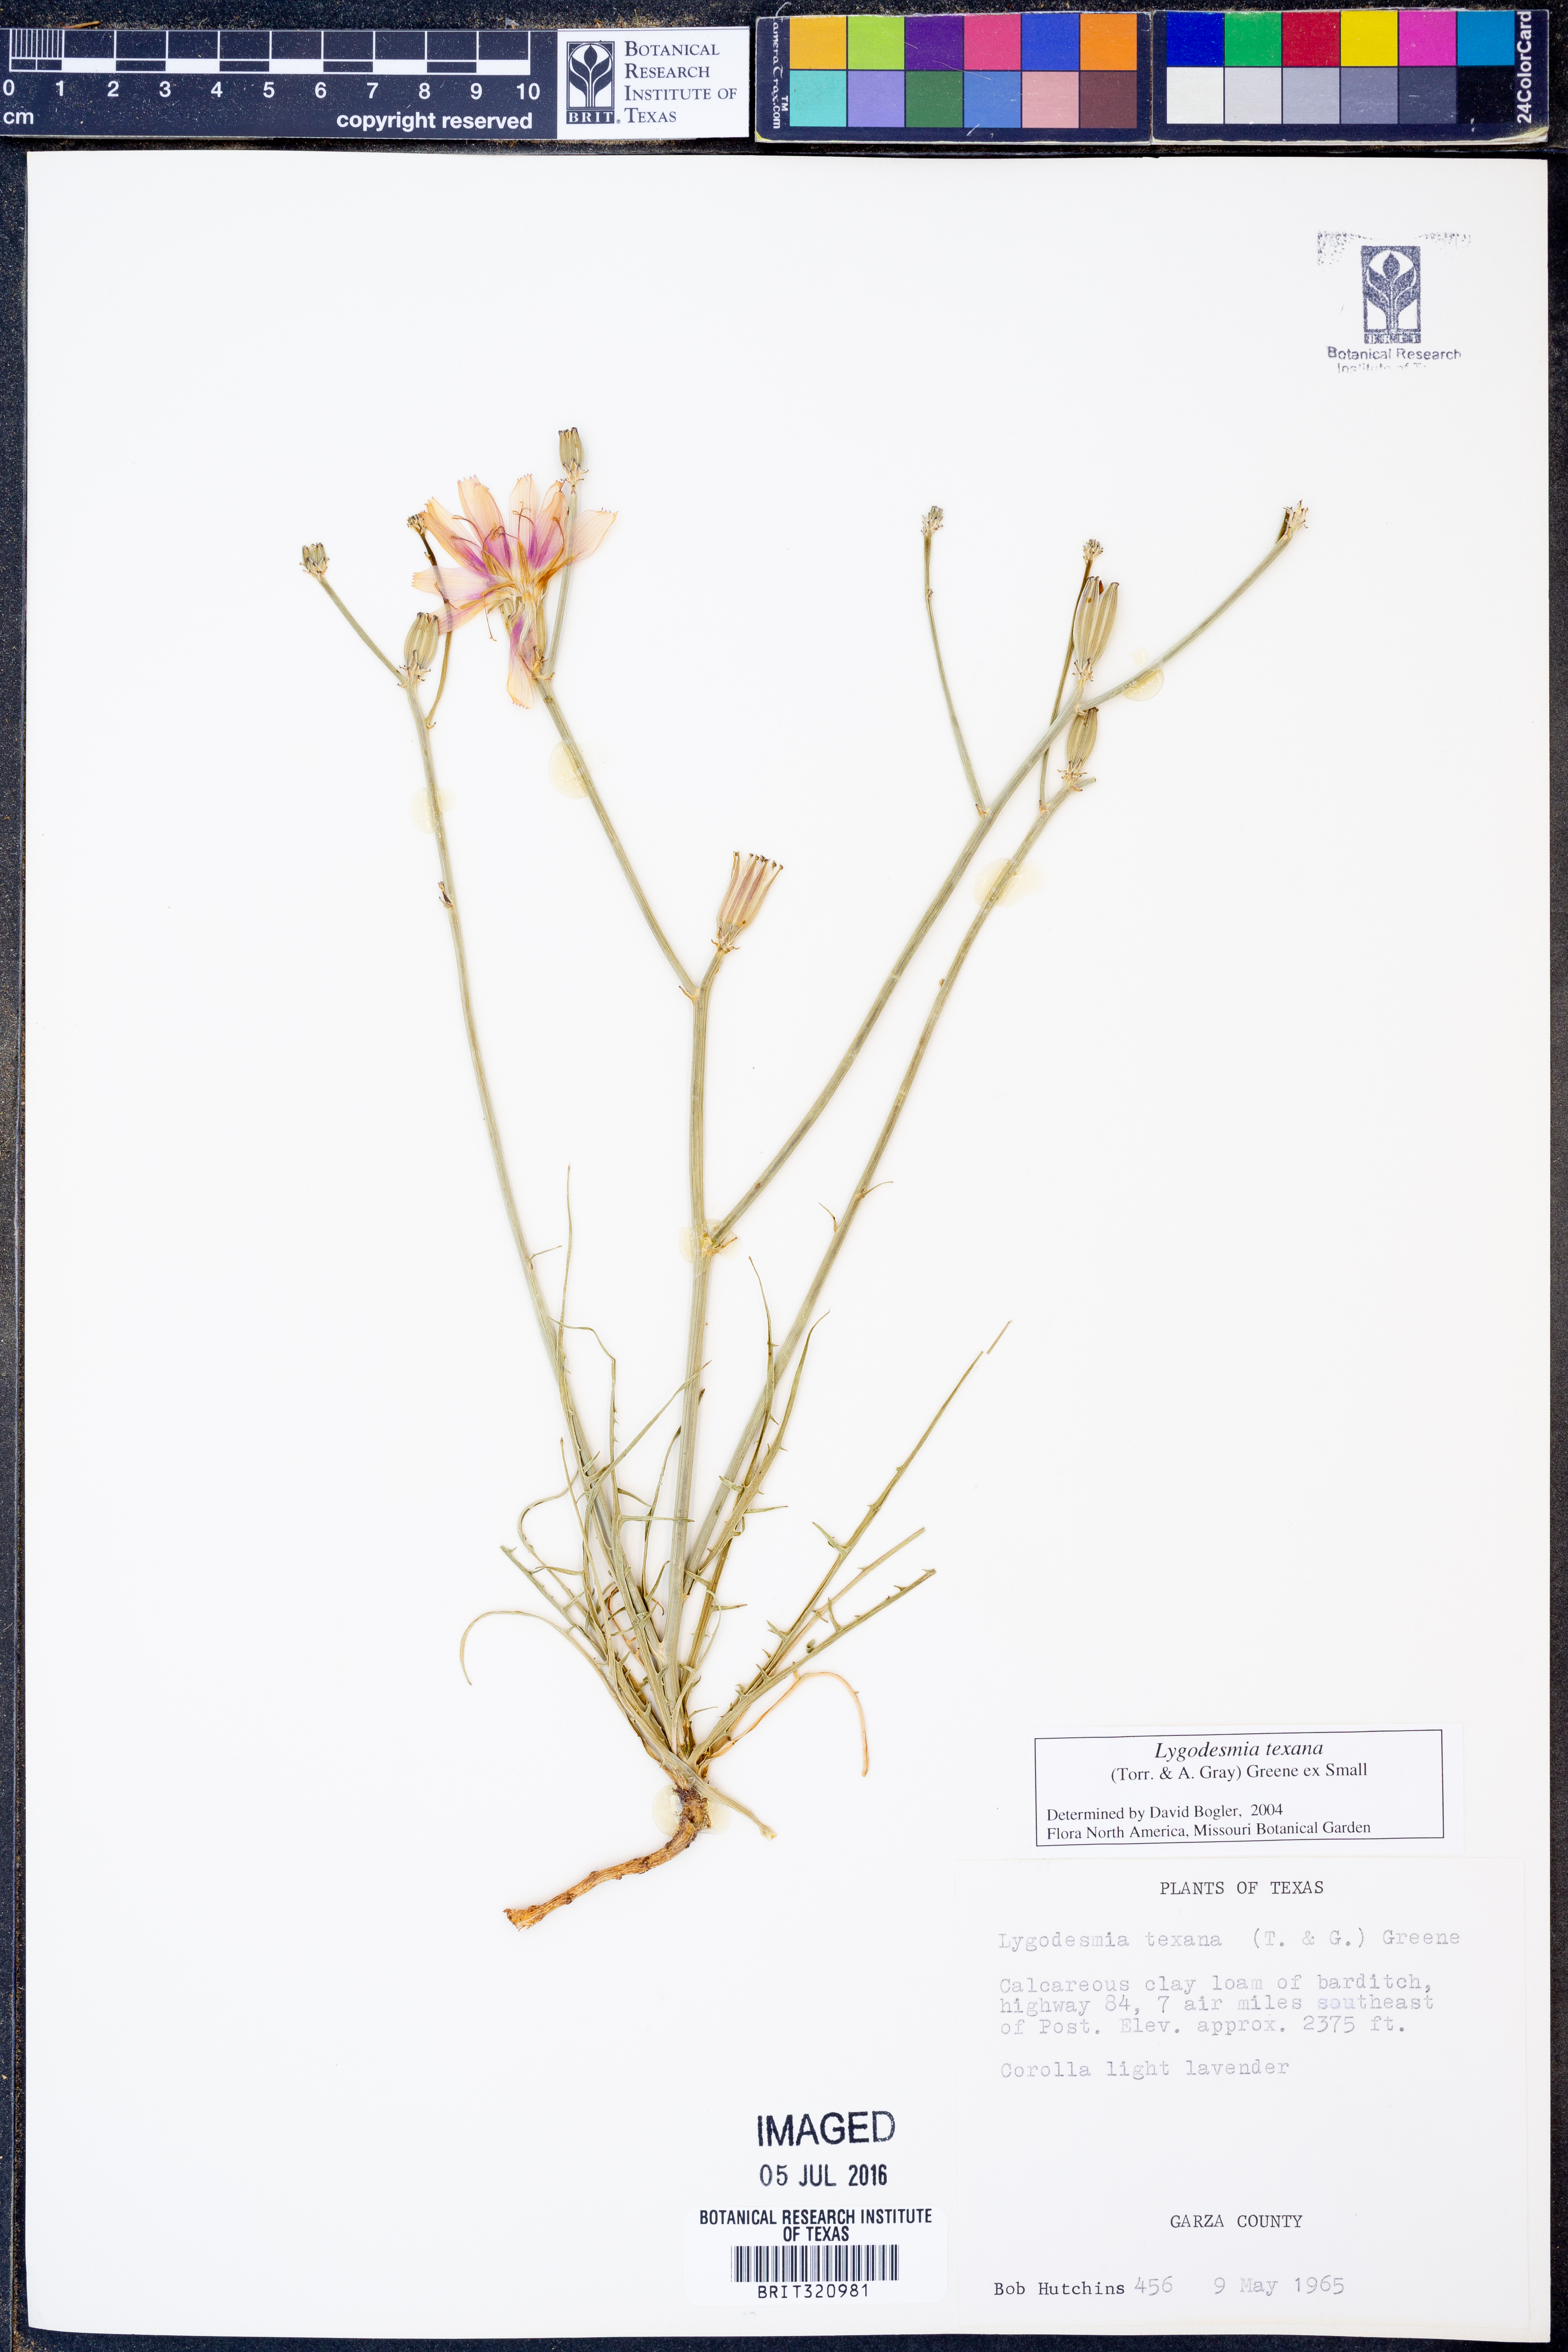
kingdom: Plantae
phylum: Tracheophyta
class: Magnoliopsida
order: Asterales
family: Asteraceae
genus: Lygodesmia
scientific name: Lygodesmia texana
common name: Texas skeleton-plant
